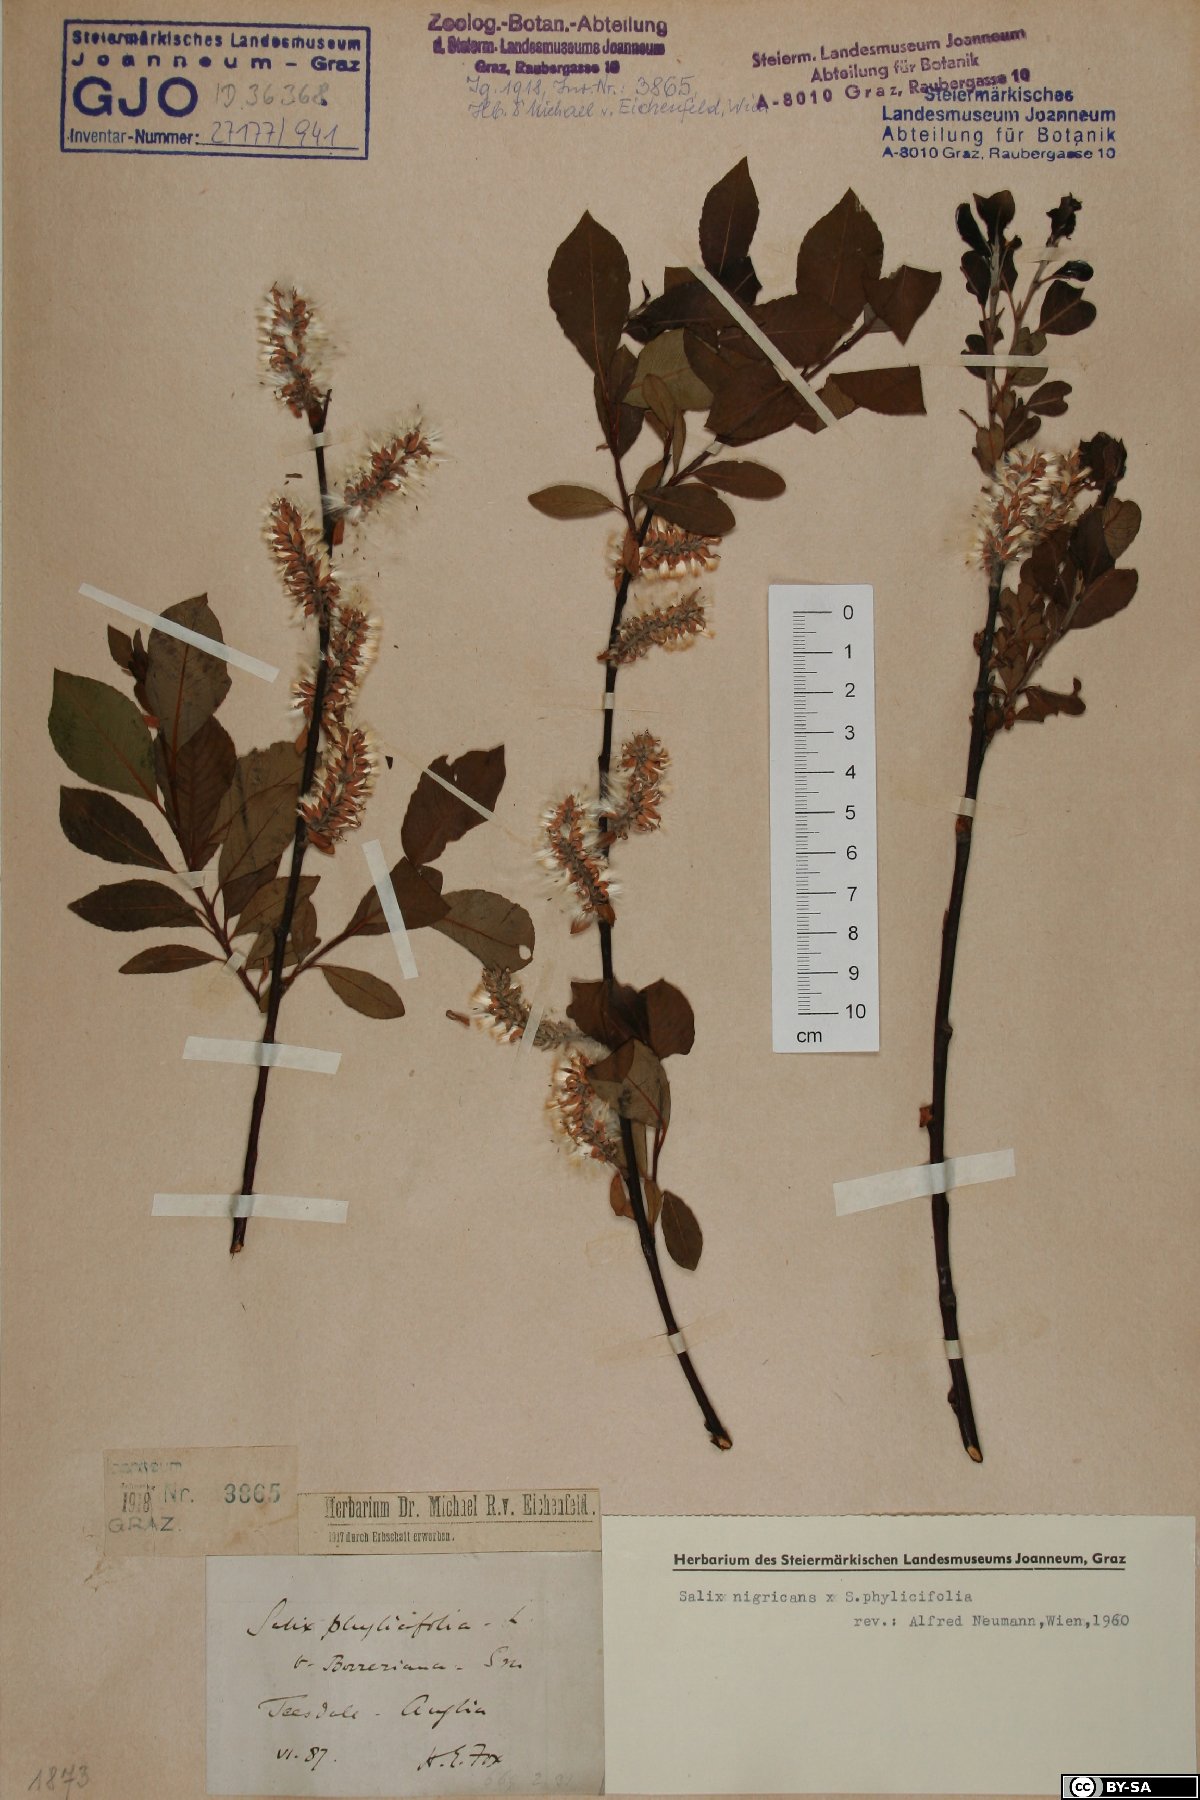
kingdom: Plantae
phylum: Tracheophyta
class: Magnoliopsida
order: Malpighiales
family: Salicaceae
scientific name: Salicaceae
